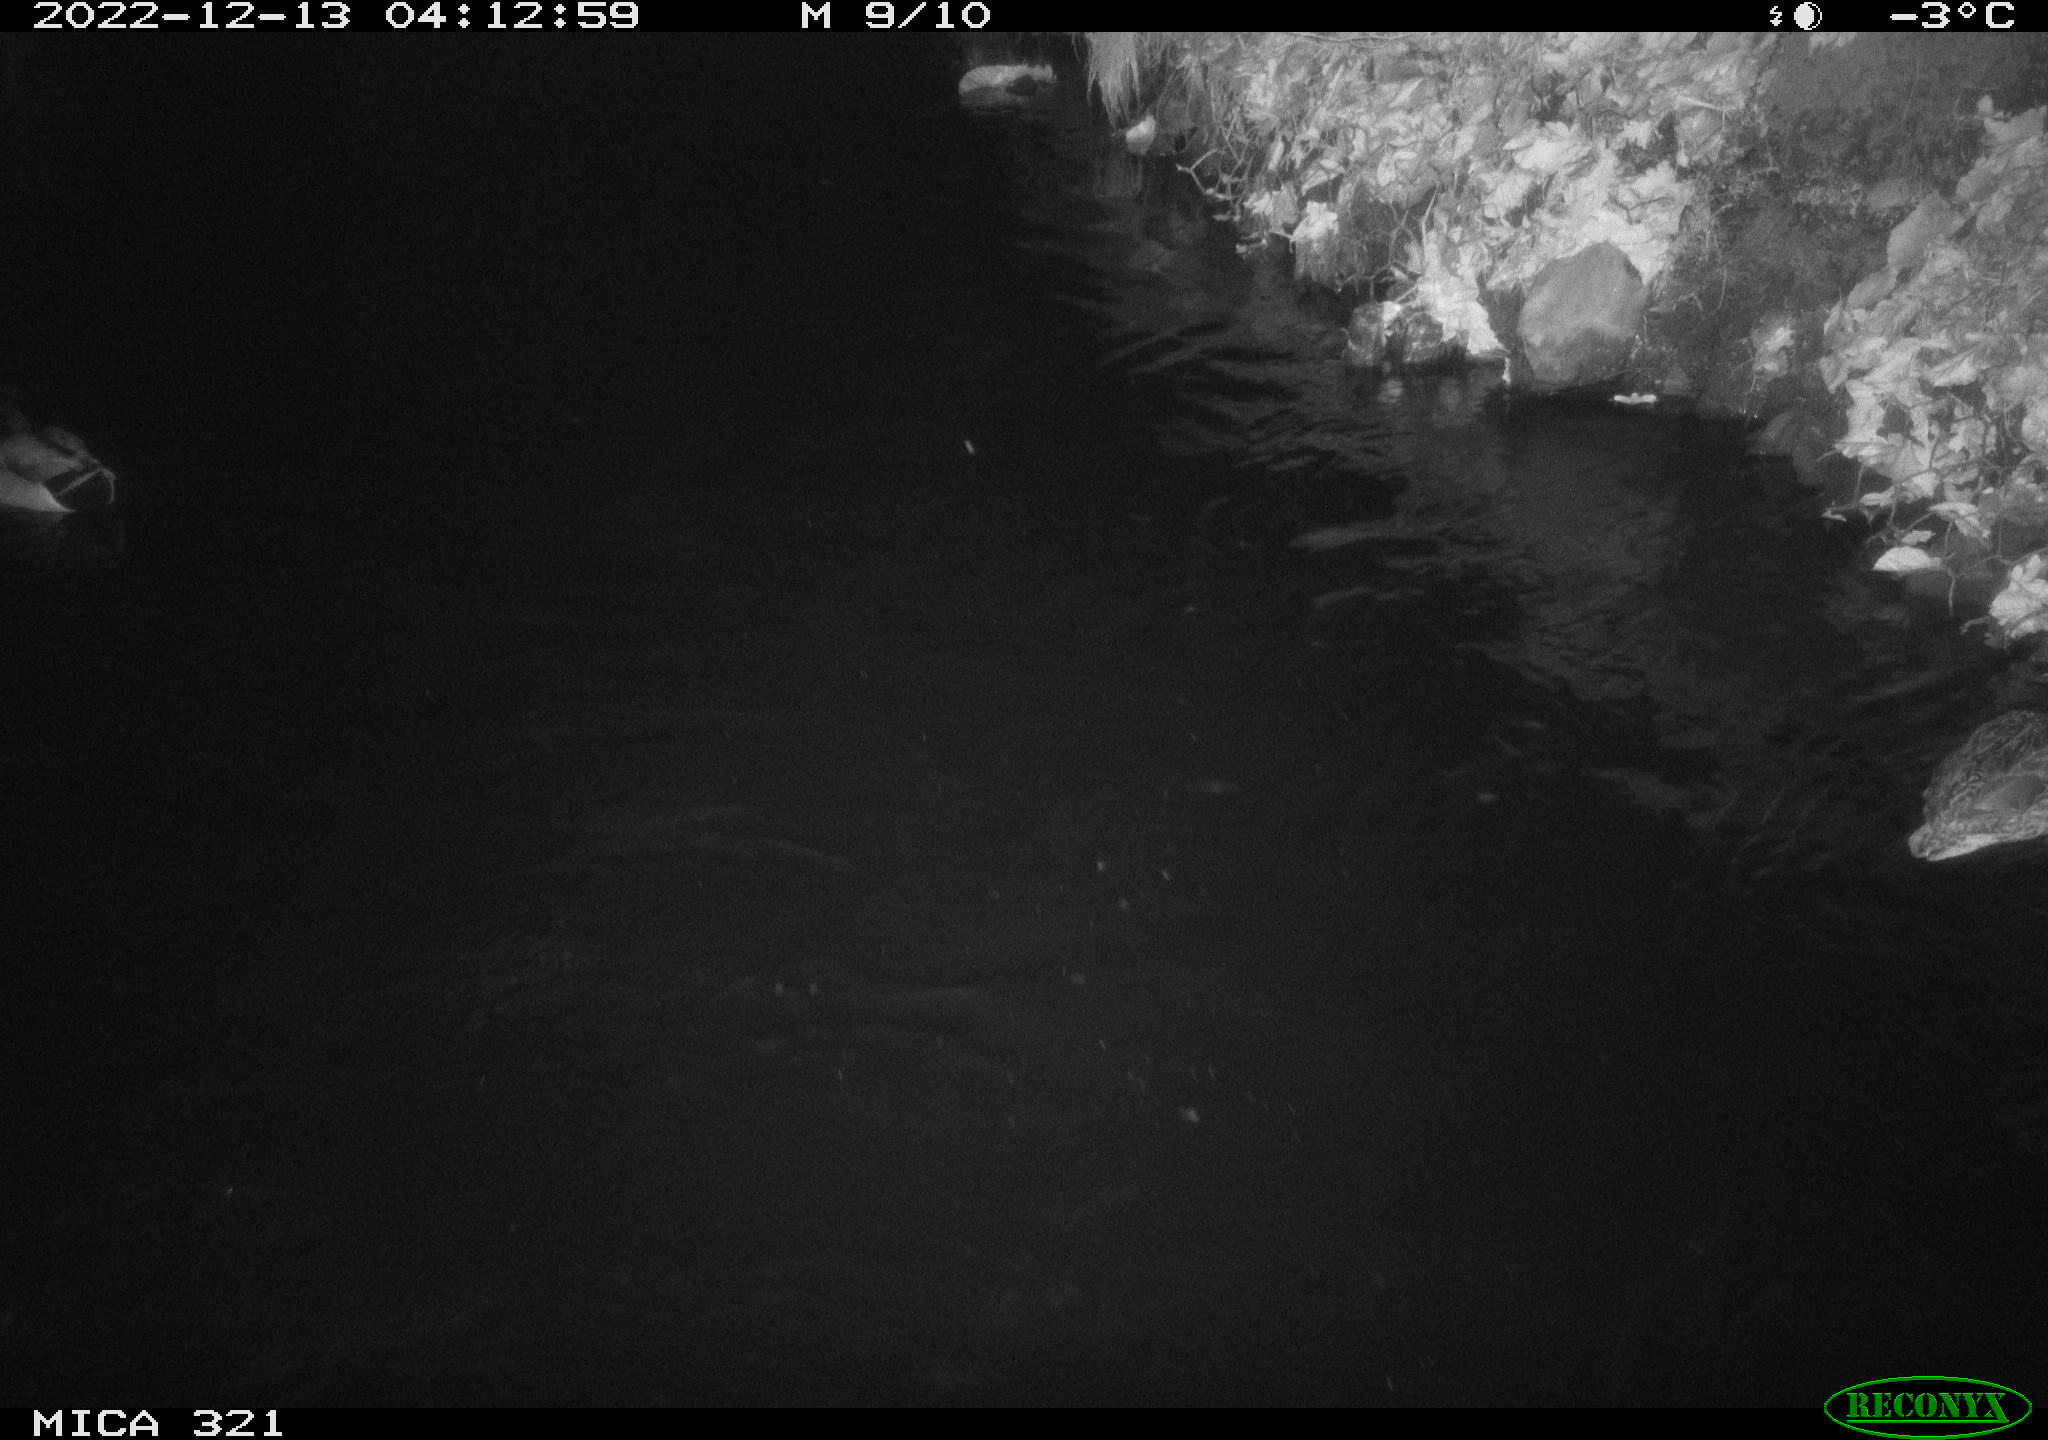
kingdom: Animalia
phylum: Chordata
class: Aves
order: Anseriformes
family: Anatidae
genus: Anas
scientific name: Anas
